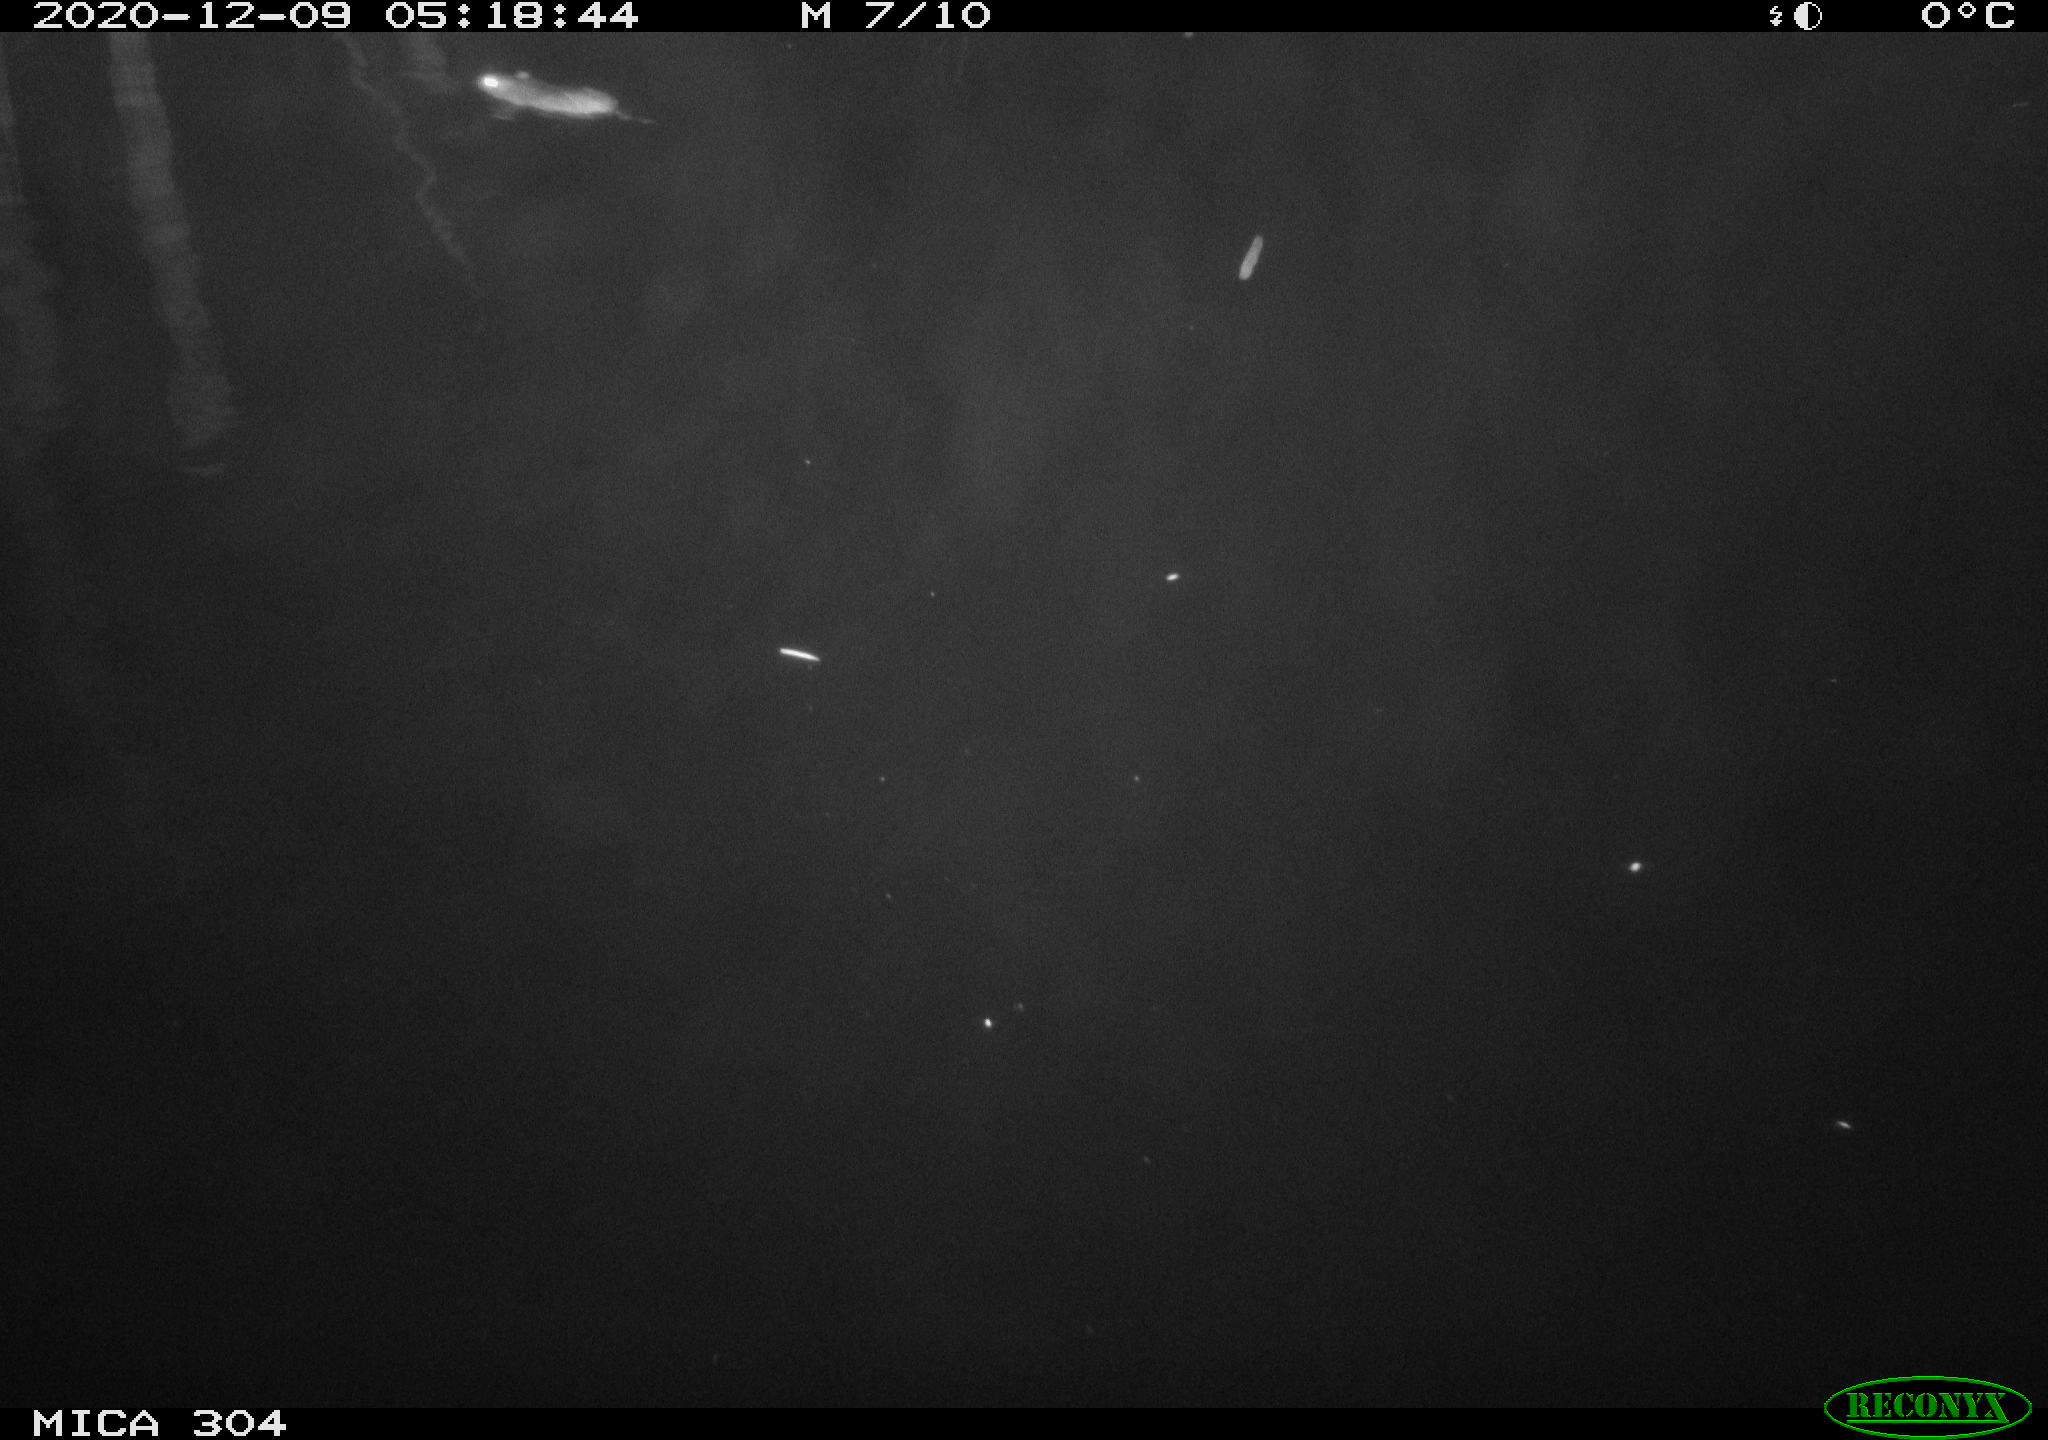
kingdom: Animalia
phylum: Chordata
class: Mammalia
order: Rodentia
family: Muridae
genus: Rattus
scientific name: Rattus norvegicus
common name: Brown rat
